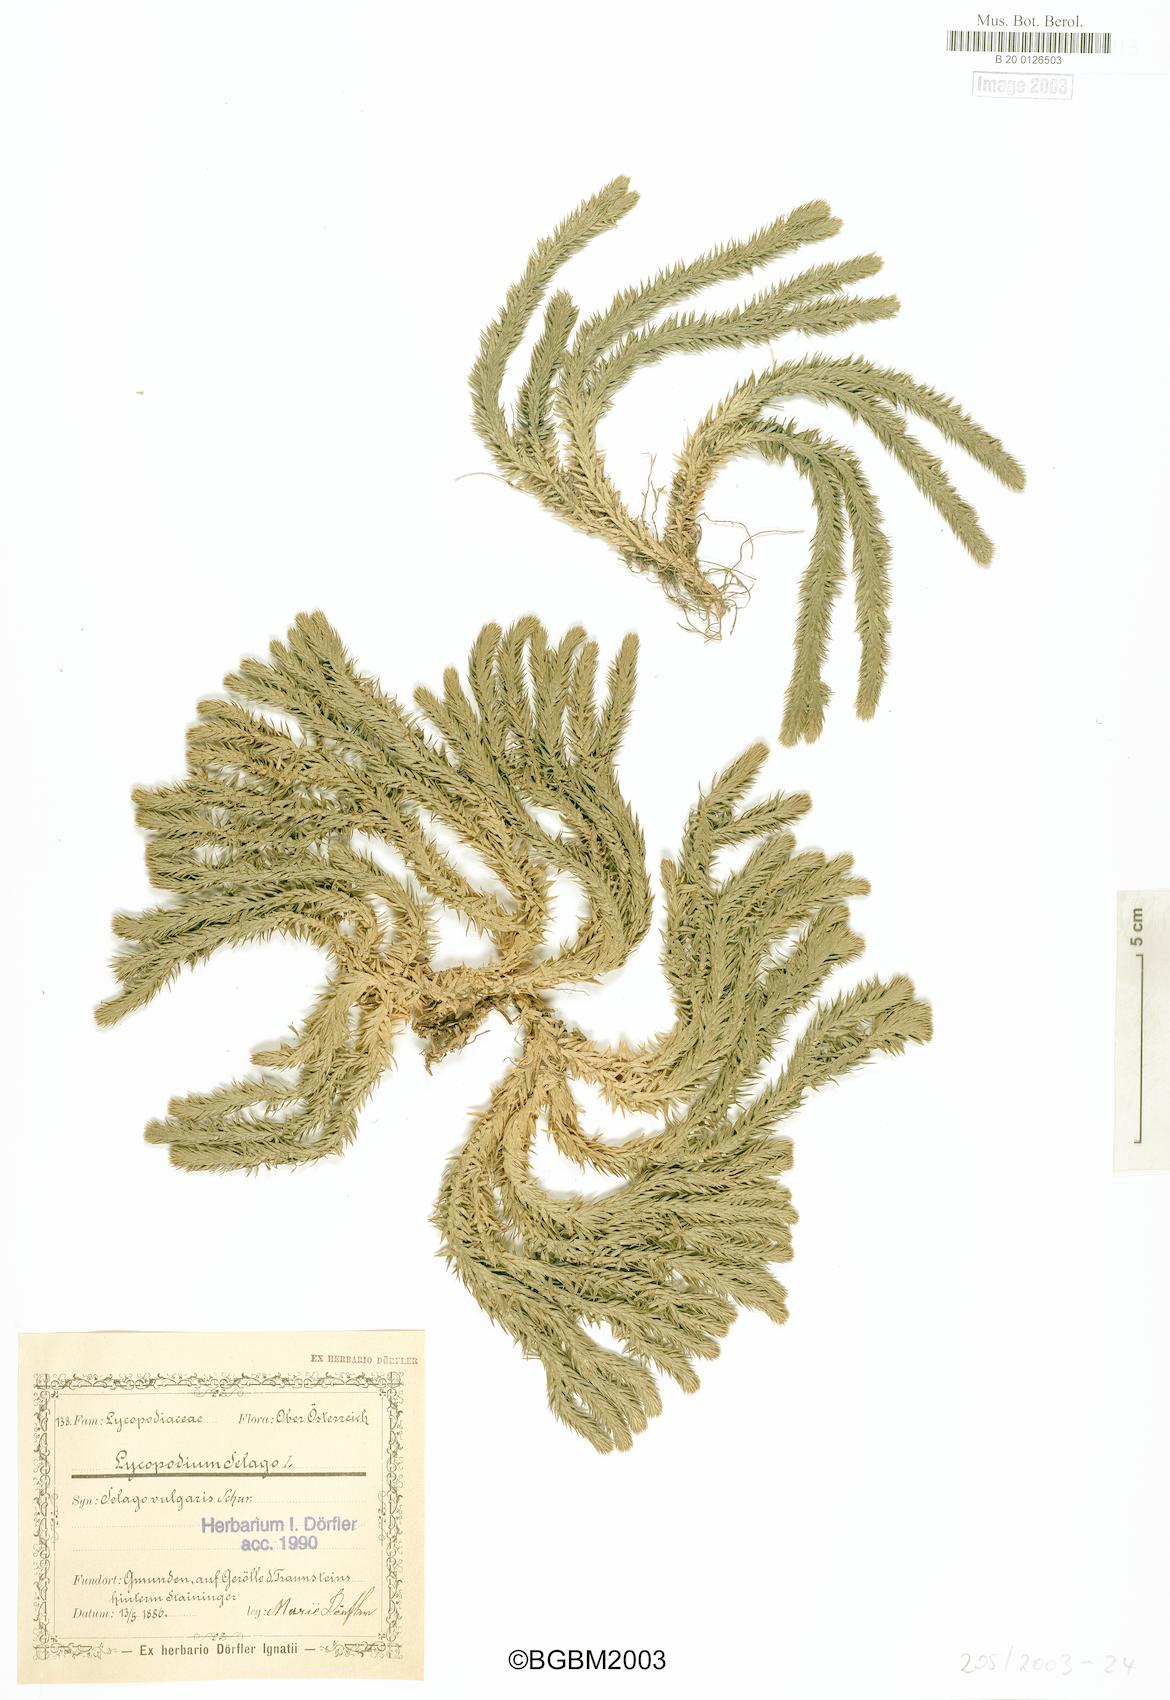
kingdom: Plantae
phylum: Tracheophyta
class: Lycopodiopsida
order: Lycopodiales
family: Lycopodiaceae
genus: Huperzia
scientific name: Huperzia selago
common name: Northern firmoss
